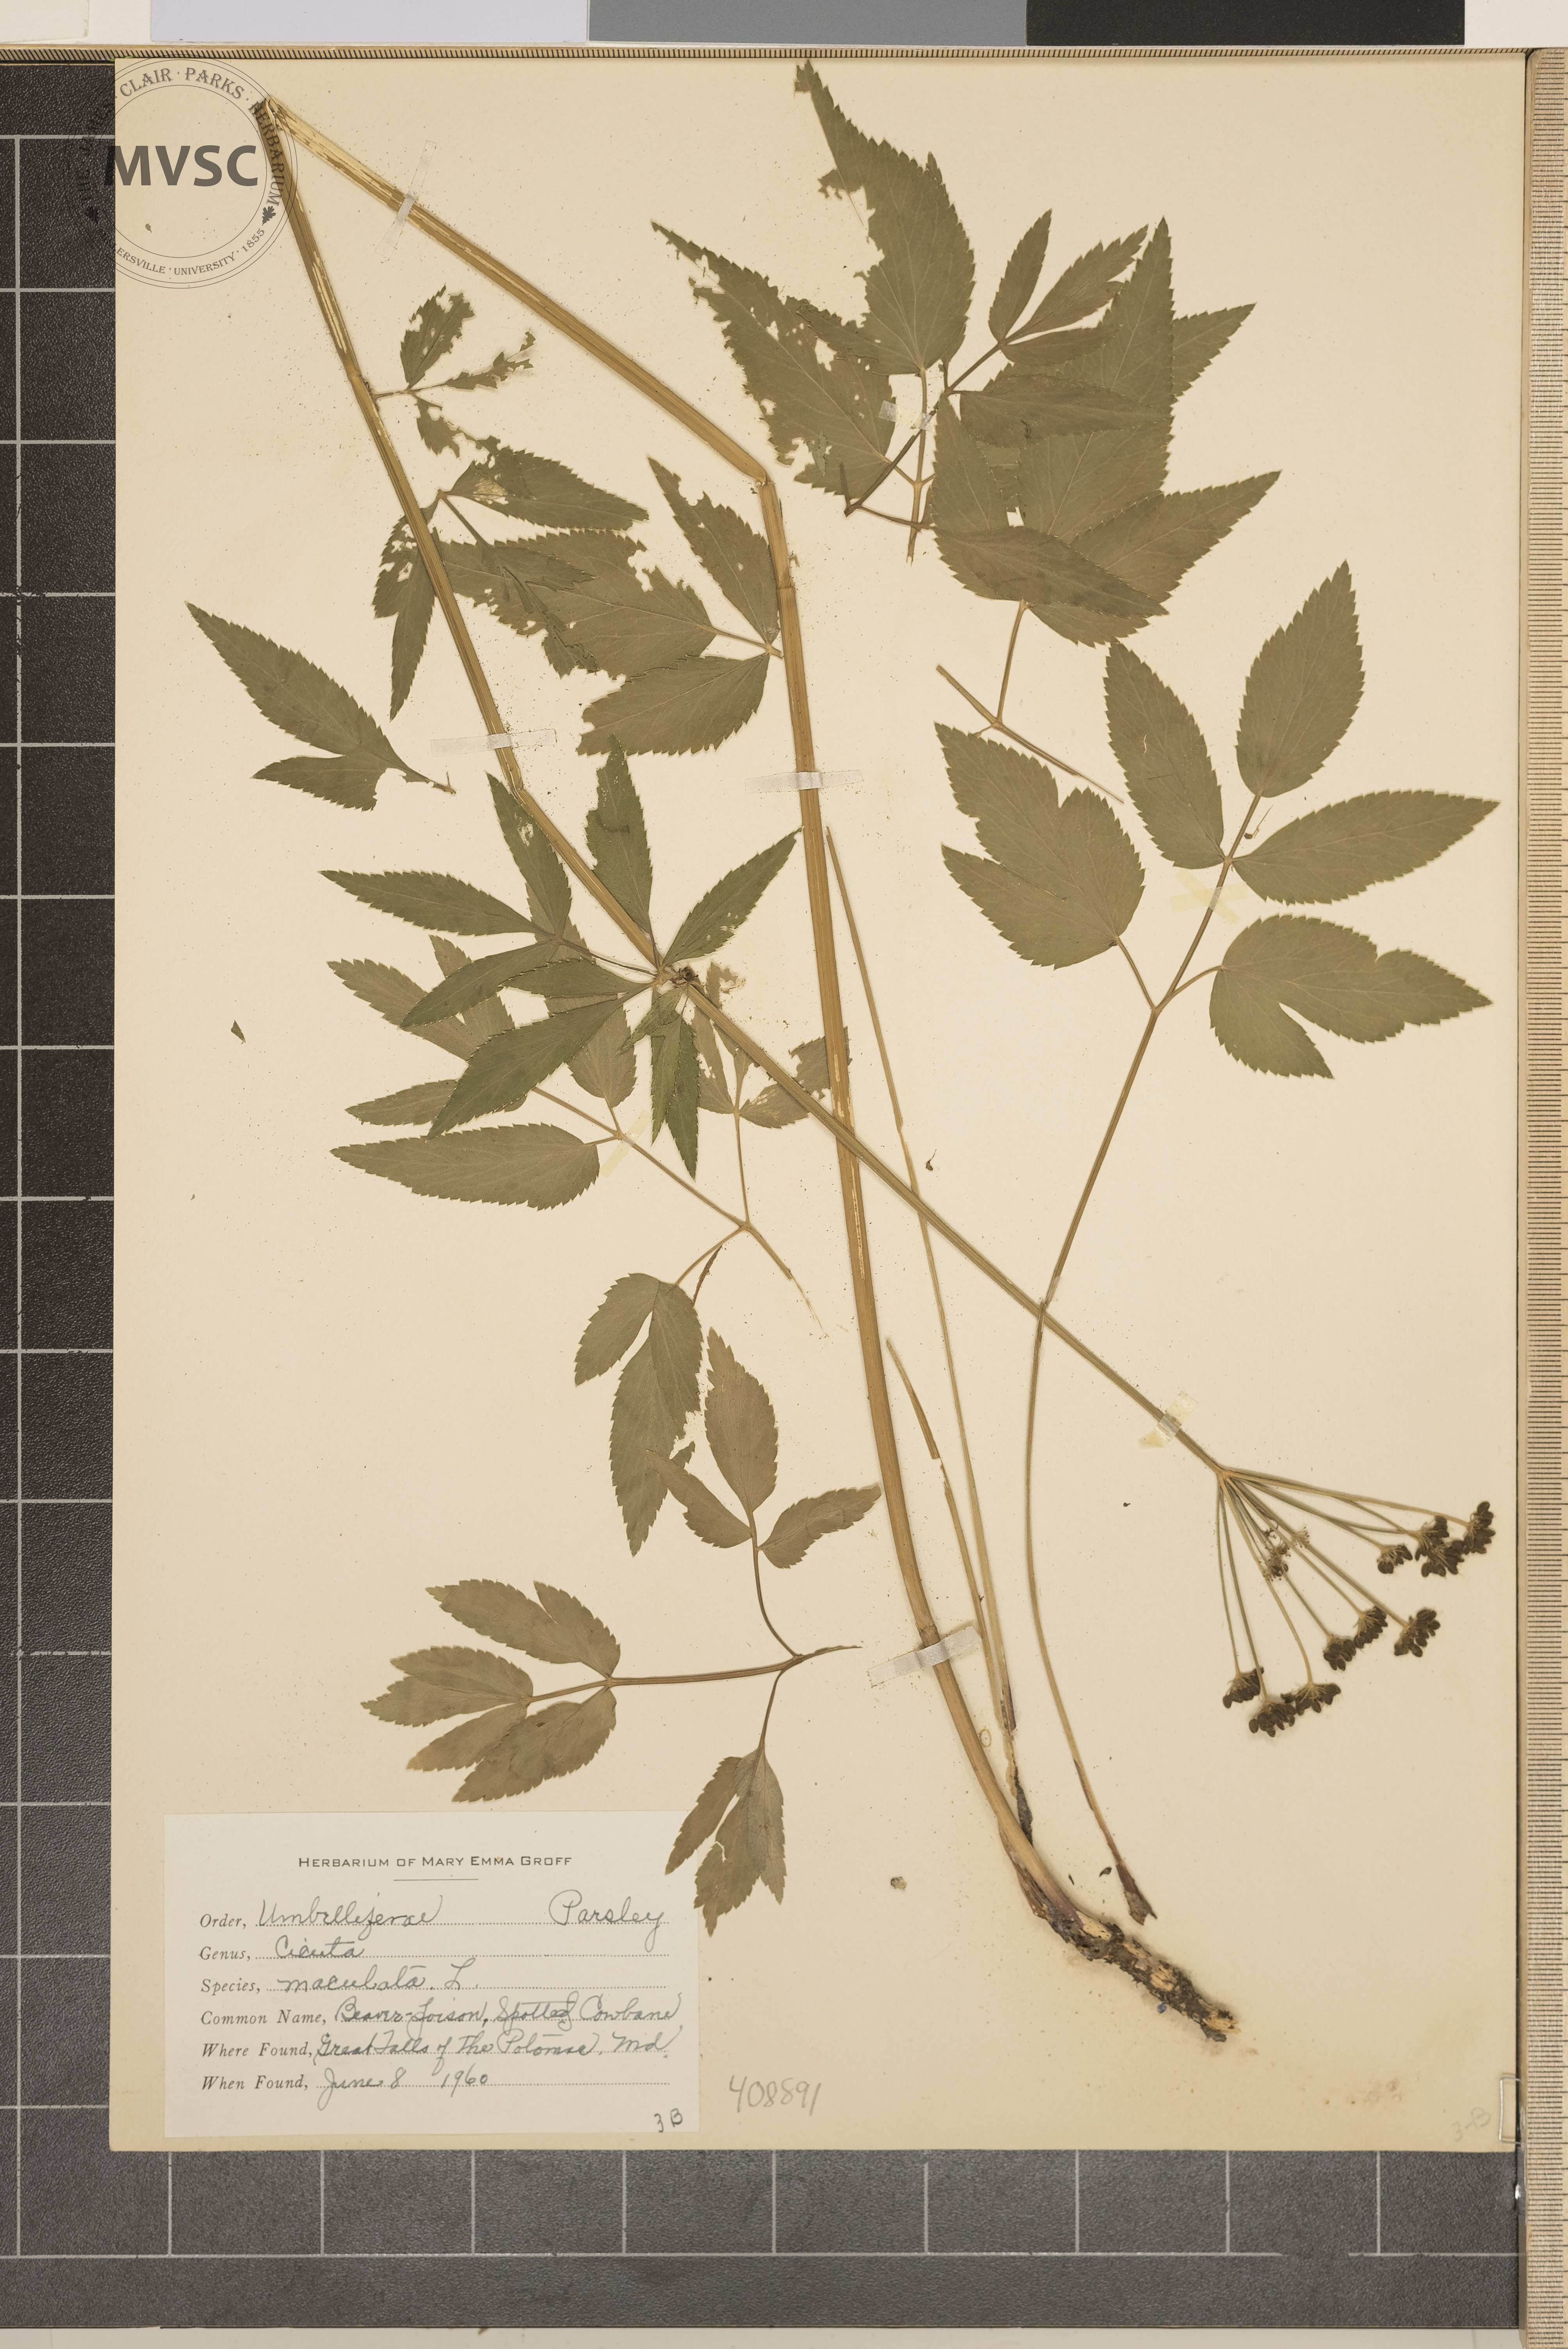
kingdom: Plantae
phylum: Tracheophyta
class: Magnoliopsida
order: Apiales
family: Apiaceae
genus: Cicuta
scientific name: Cicuta maculata
